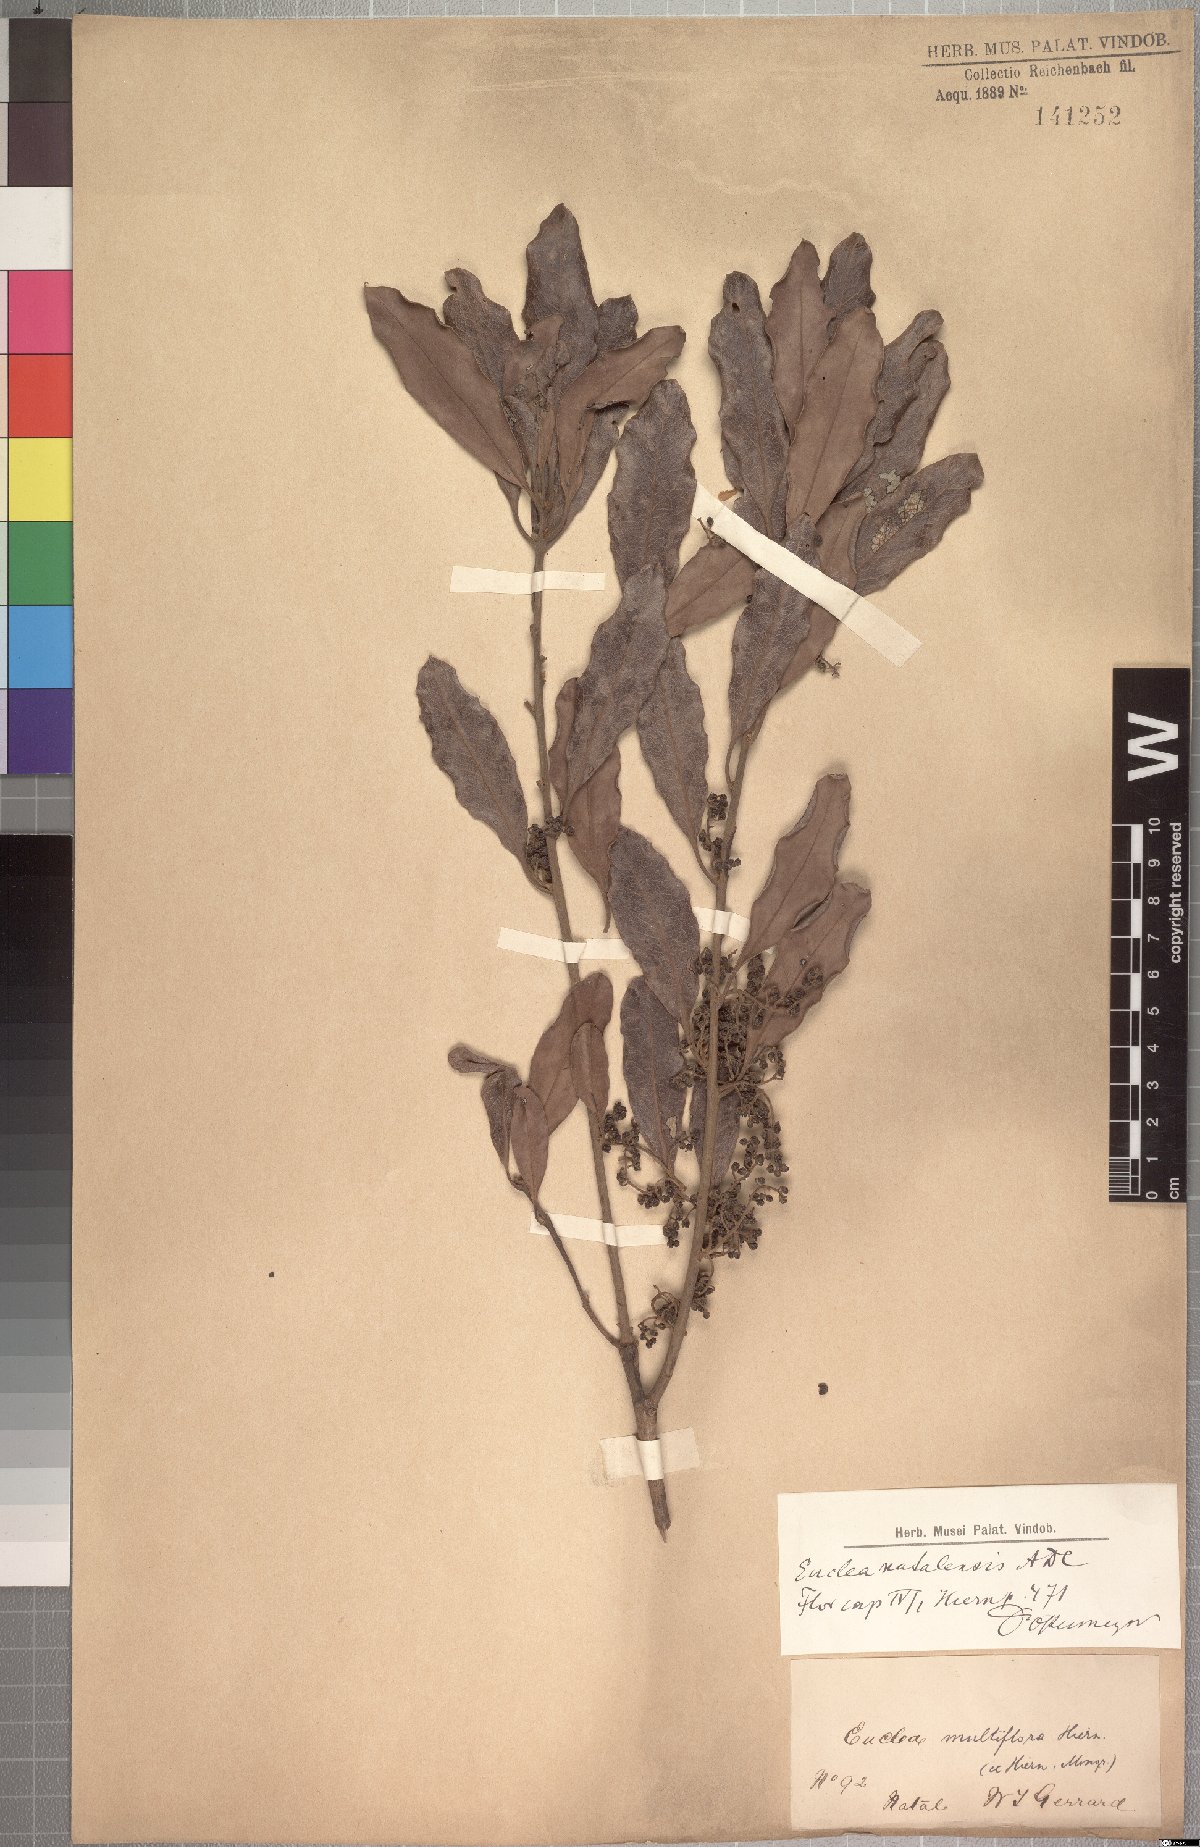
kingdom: Plantae
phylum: Tracheophyta
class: Magnoliopsida
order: Ericales
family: Ebenaceae
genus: Euclea
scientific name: Euclea natalensis
